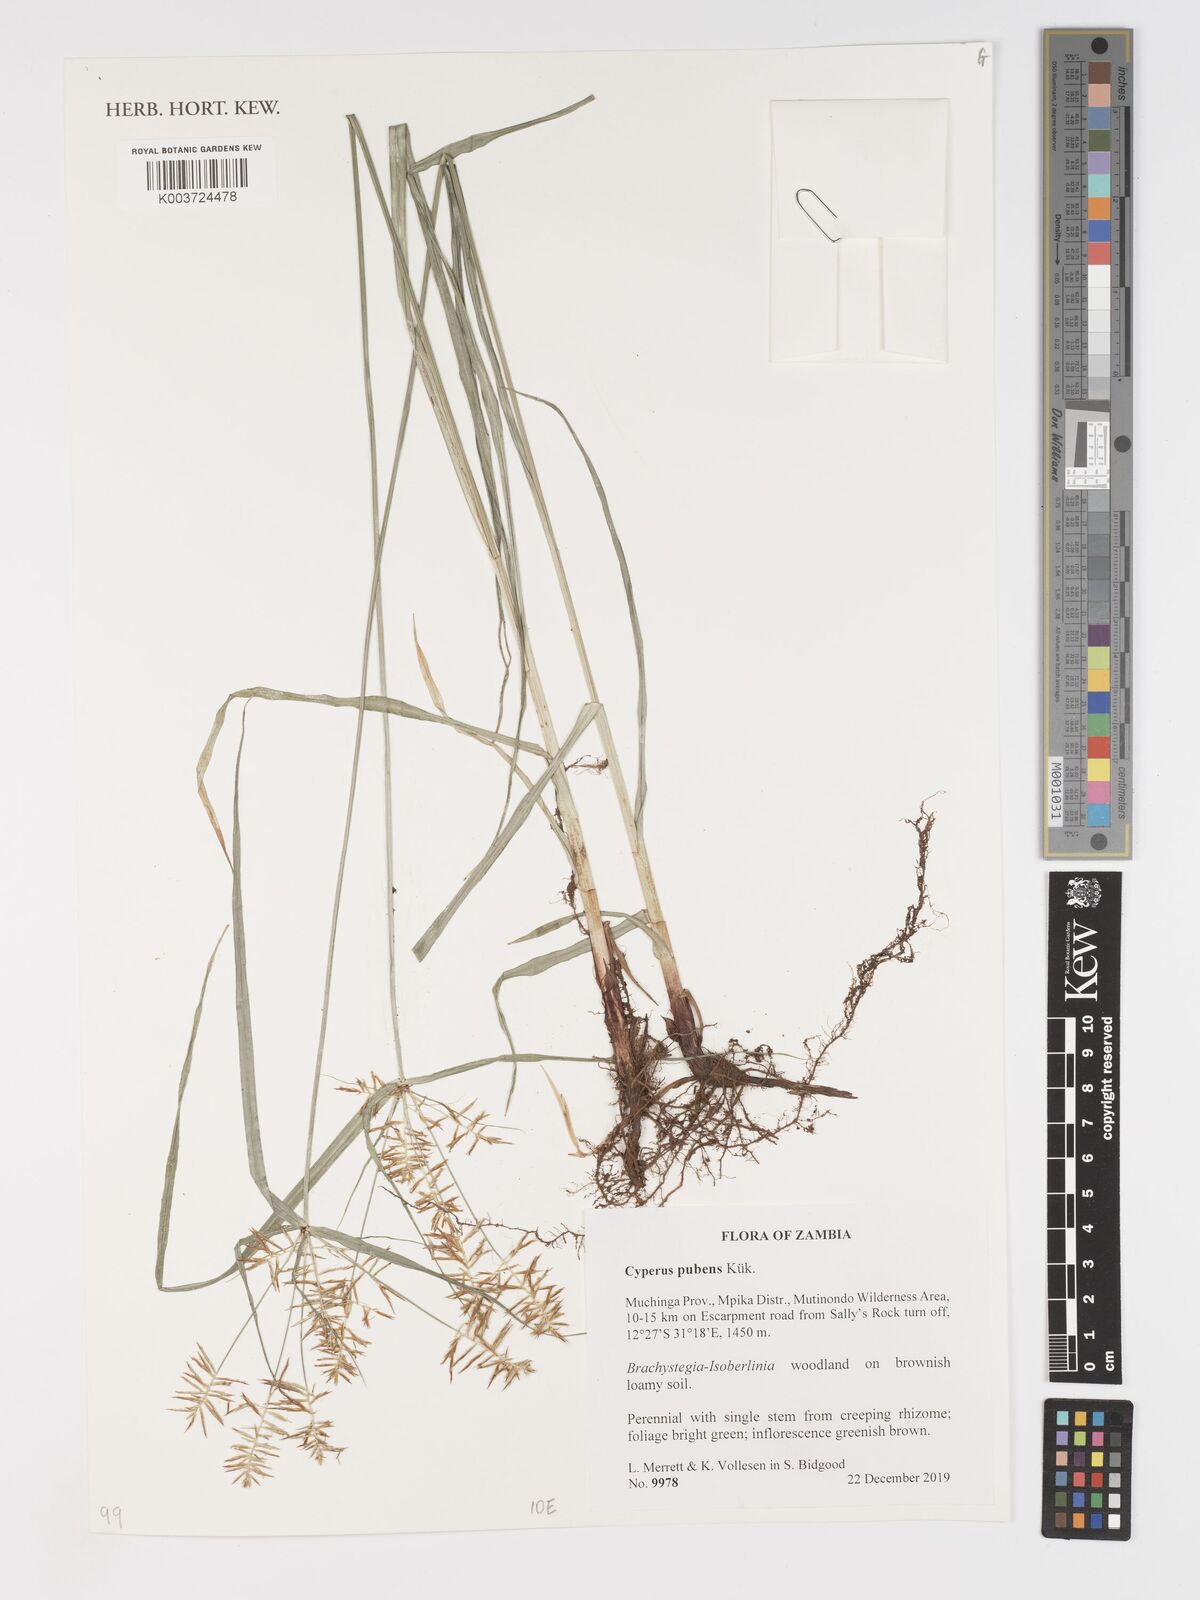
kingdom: Plantae
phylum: Tracheophyta
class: Liliopsida
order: Poales
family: Cyperaceae
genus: Cyperus
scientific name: Cyperus pubens
